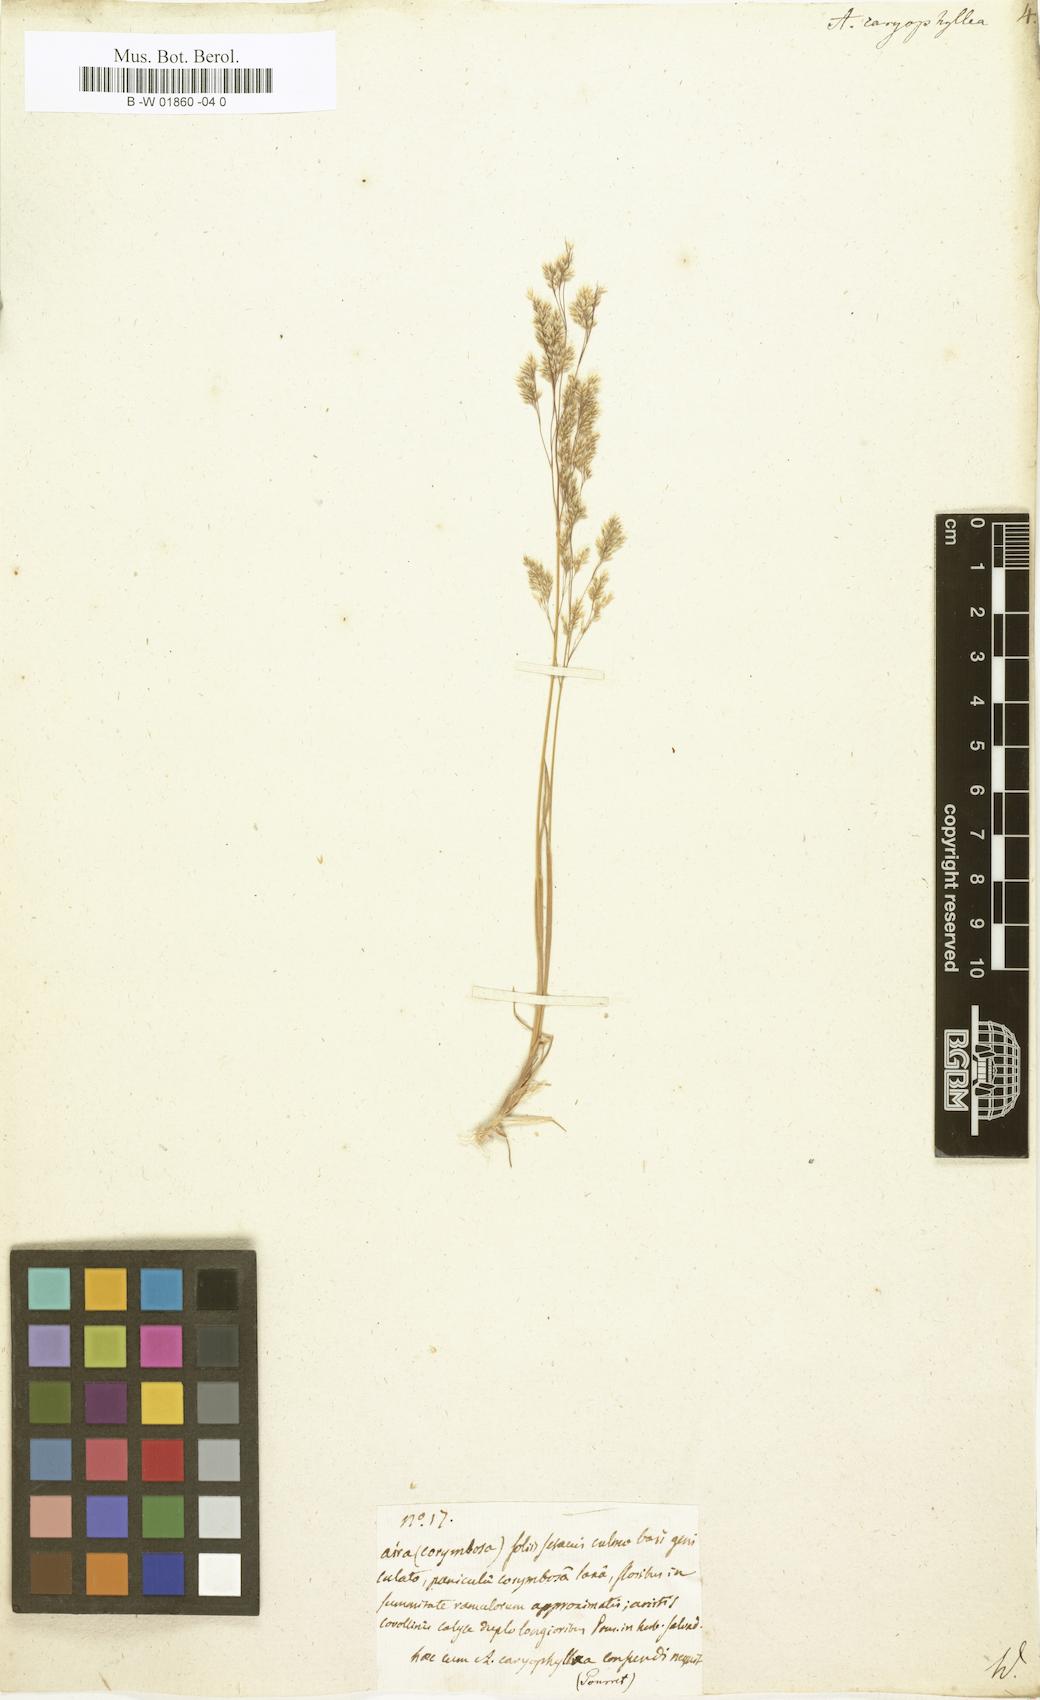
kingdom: Plantae
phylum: Tracheophyta
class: Liliopsida
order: Poales
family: Poaceae
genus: Aira
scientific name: Aira caryophyllea
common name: Silver hairgrass
